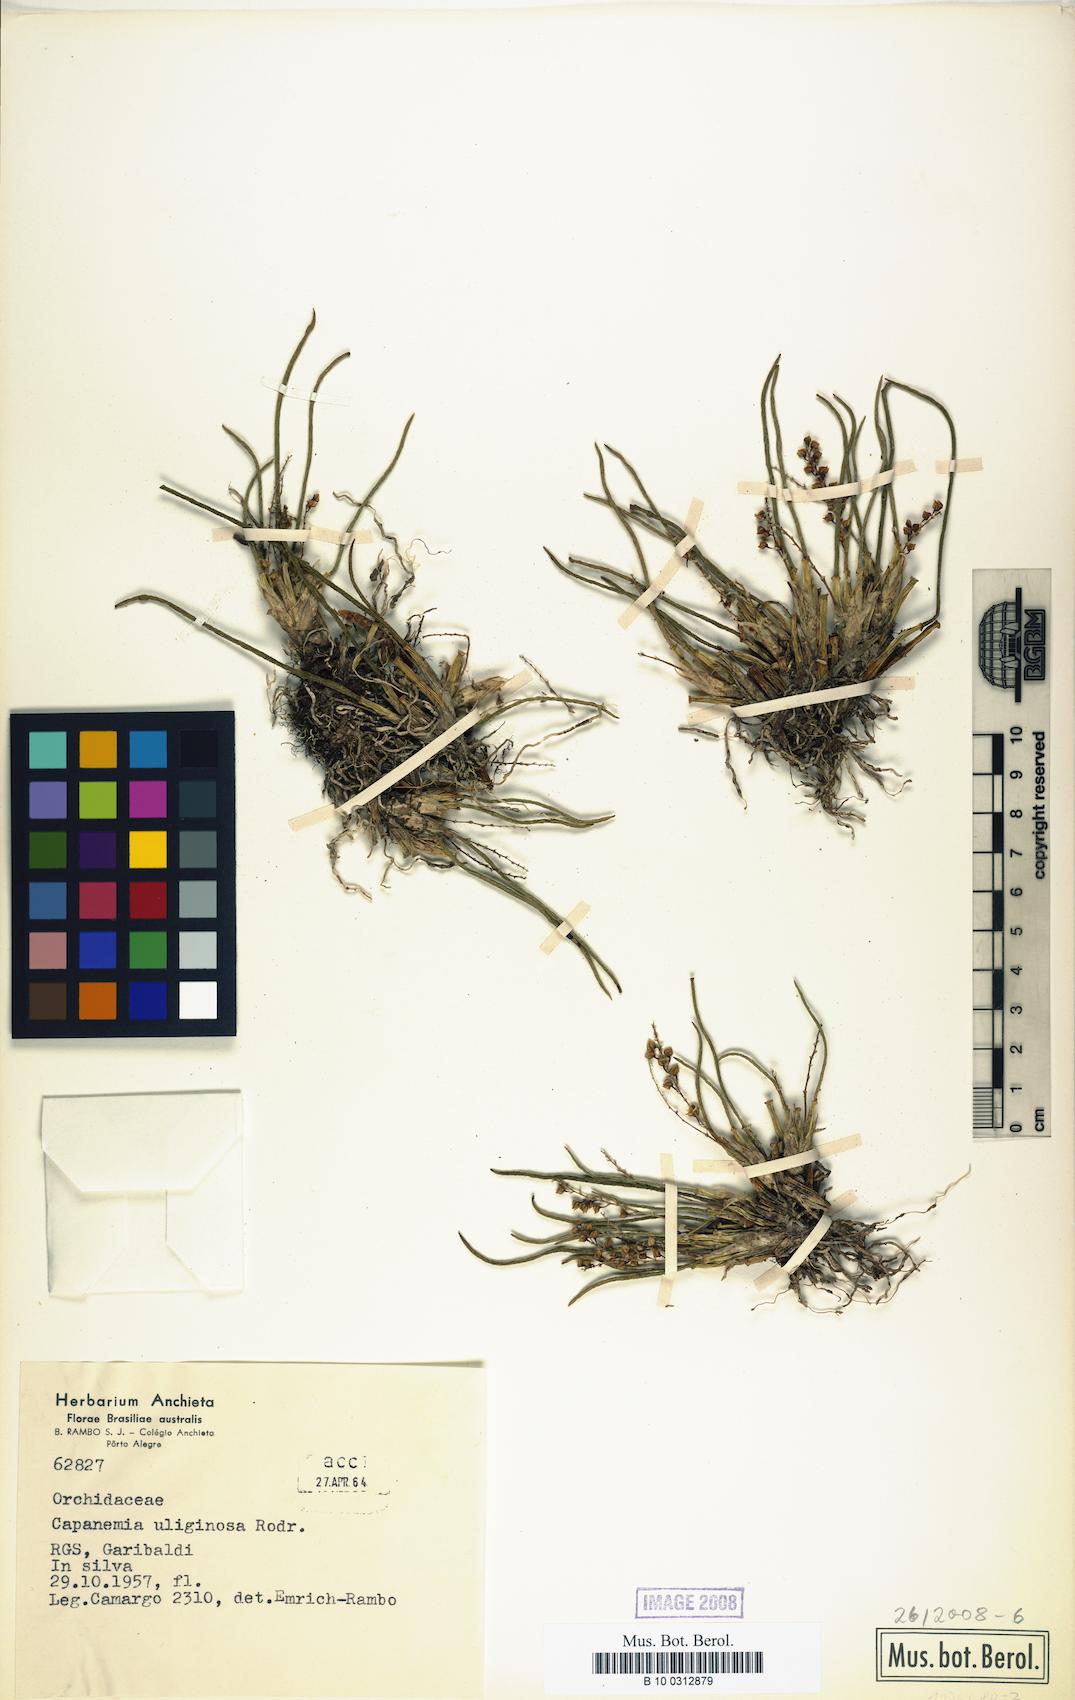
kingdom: Plantae
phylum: Tracheophyta
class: Liliopsida
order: Asparagales
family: Orchidaceae
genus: Capanemia
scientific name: Capanemia superflua
